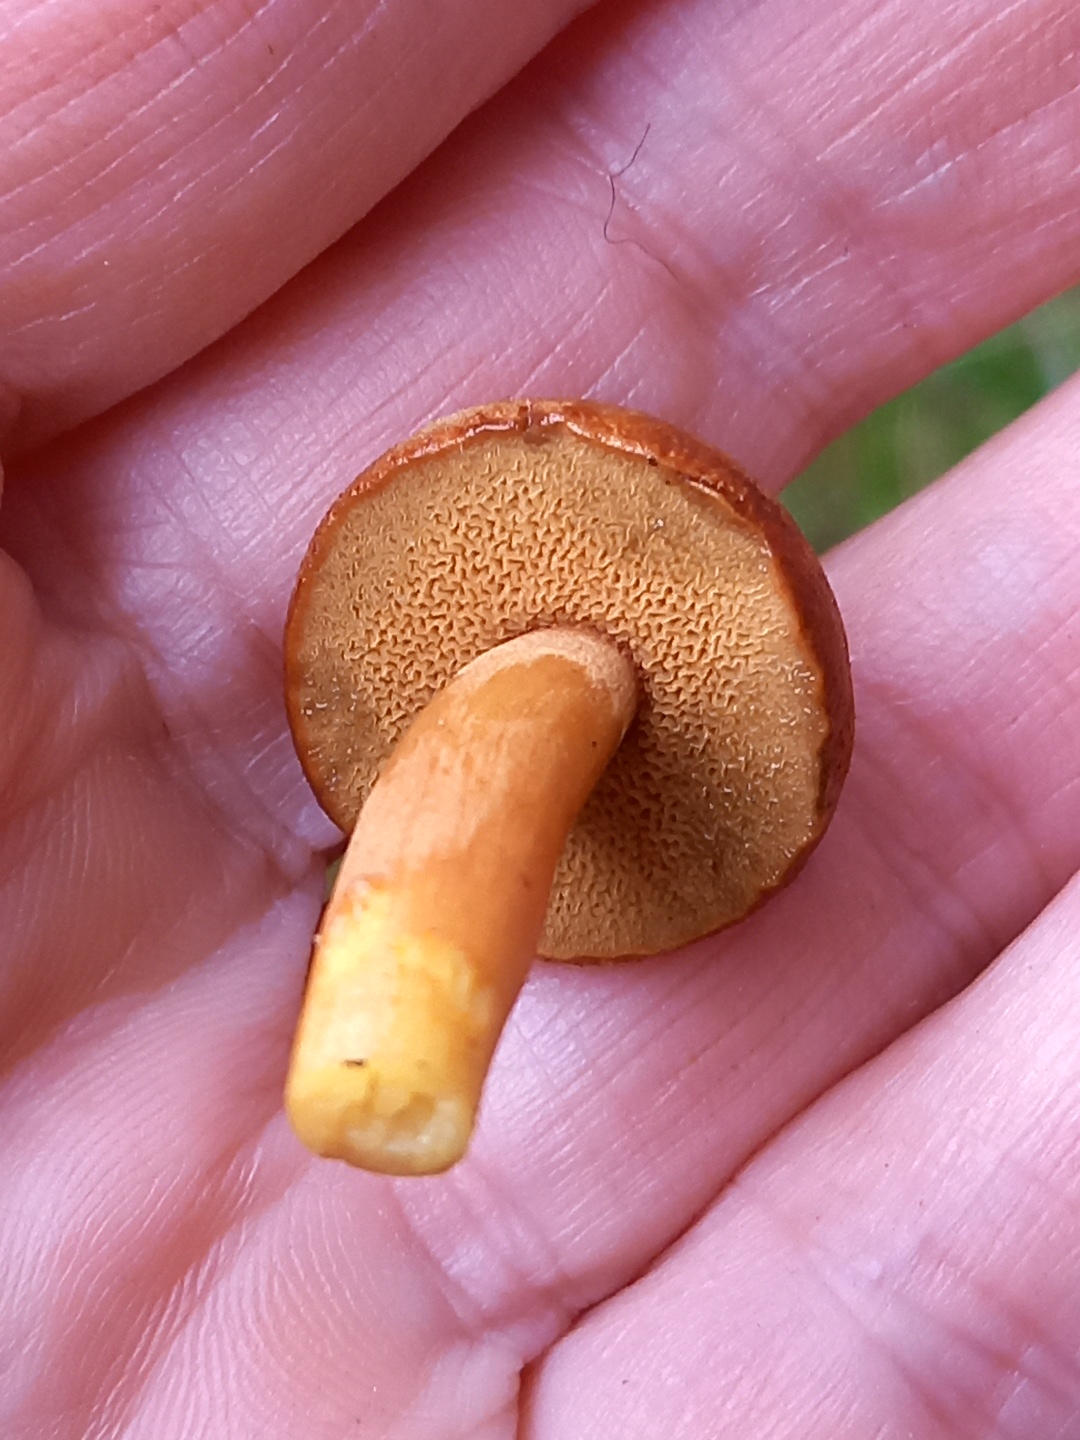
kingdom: Fungi
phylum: Basidiomycota
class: Agaricomycetes
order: Boletales
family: Boletaceae
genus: Chalciporus
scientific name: Chalciporus piperatus
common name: peberrørhat
